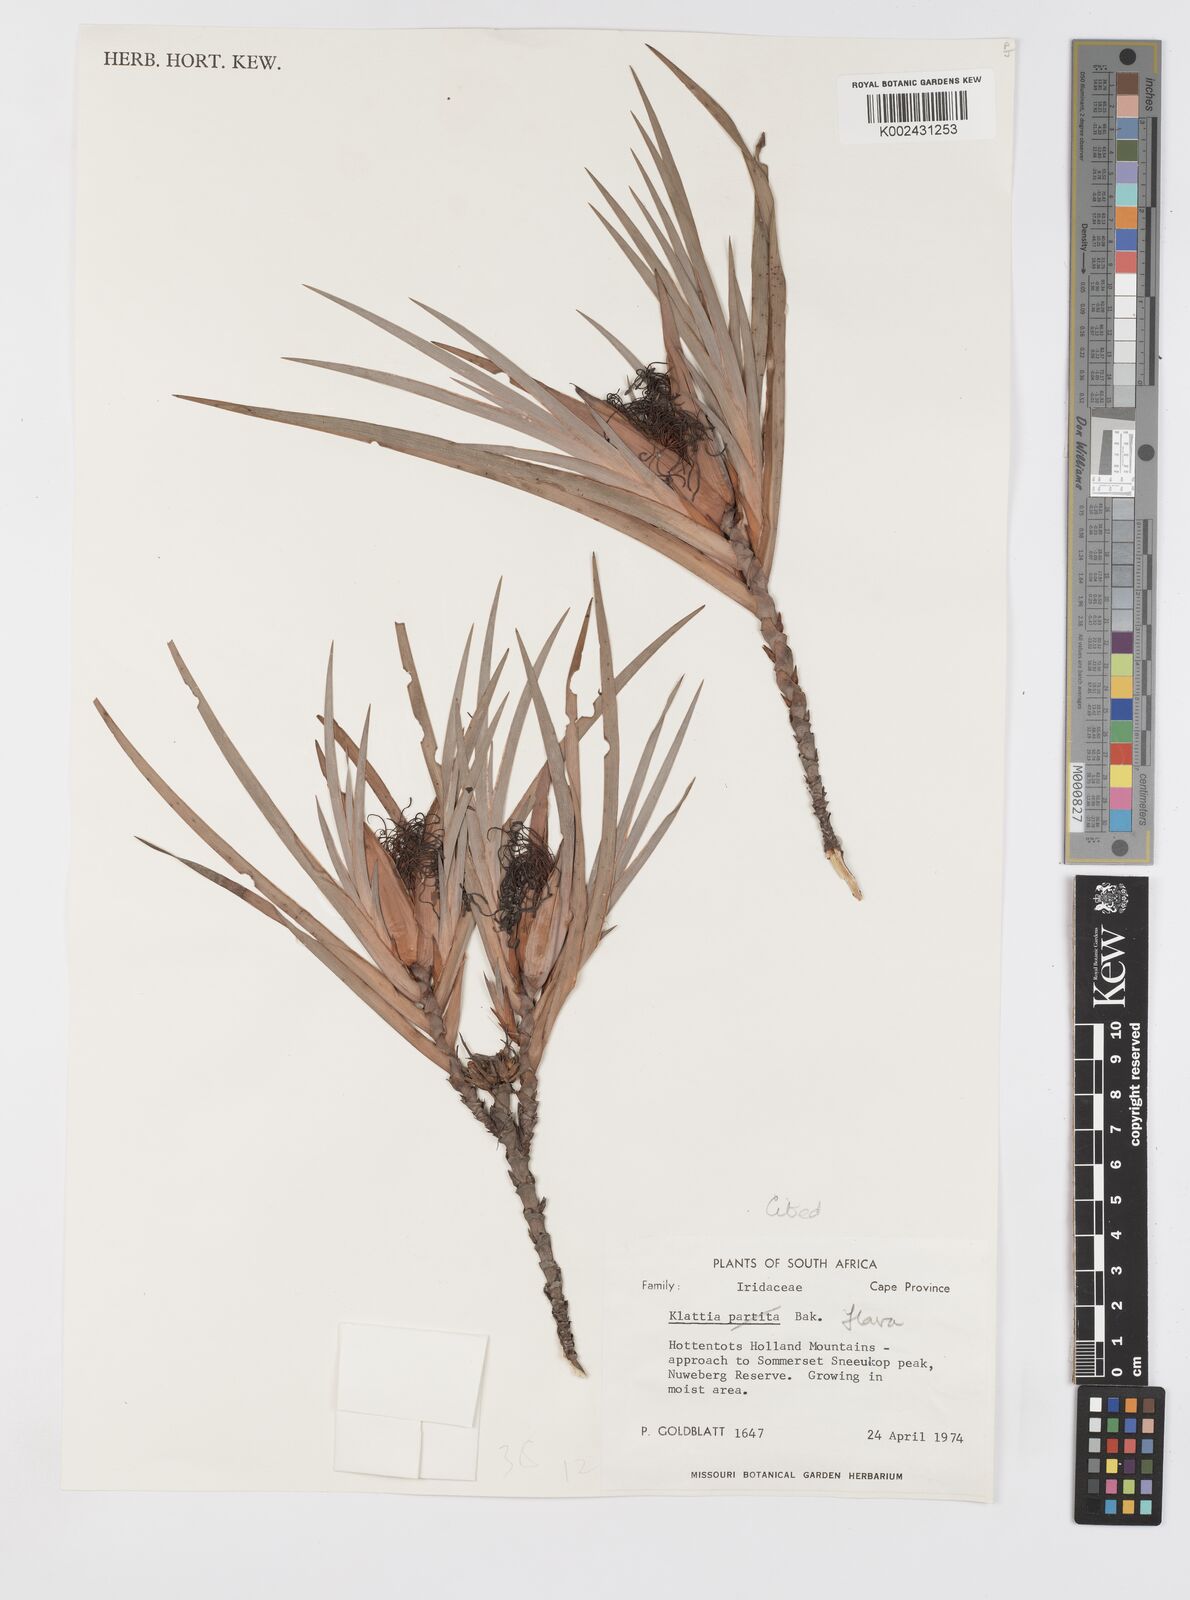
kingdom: Plantae
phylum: Tracheophyta
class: Liliopsida
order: Asparagales
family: Iridaceae
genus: Klattia
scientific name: Klattia flava
